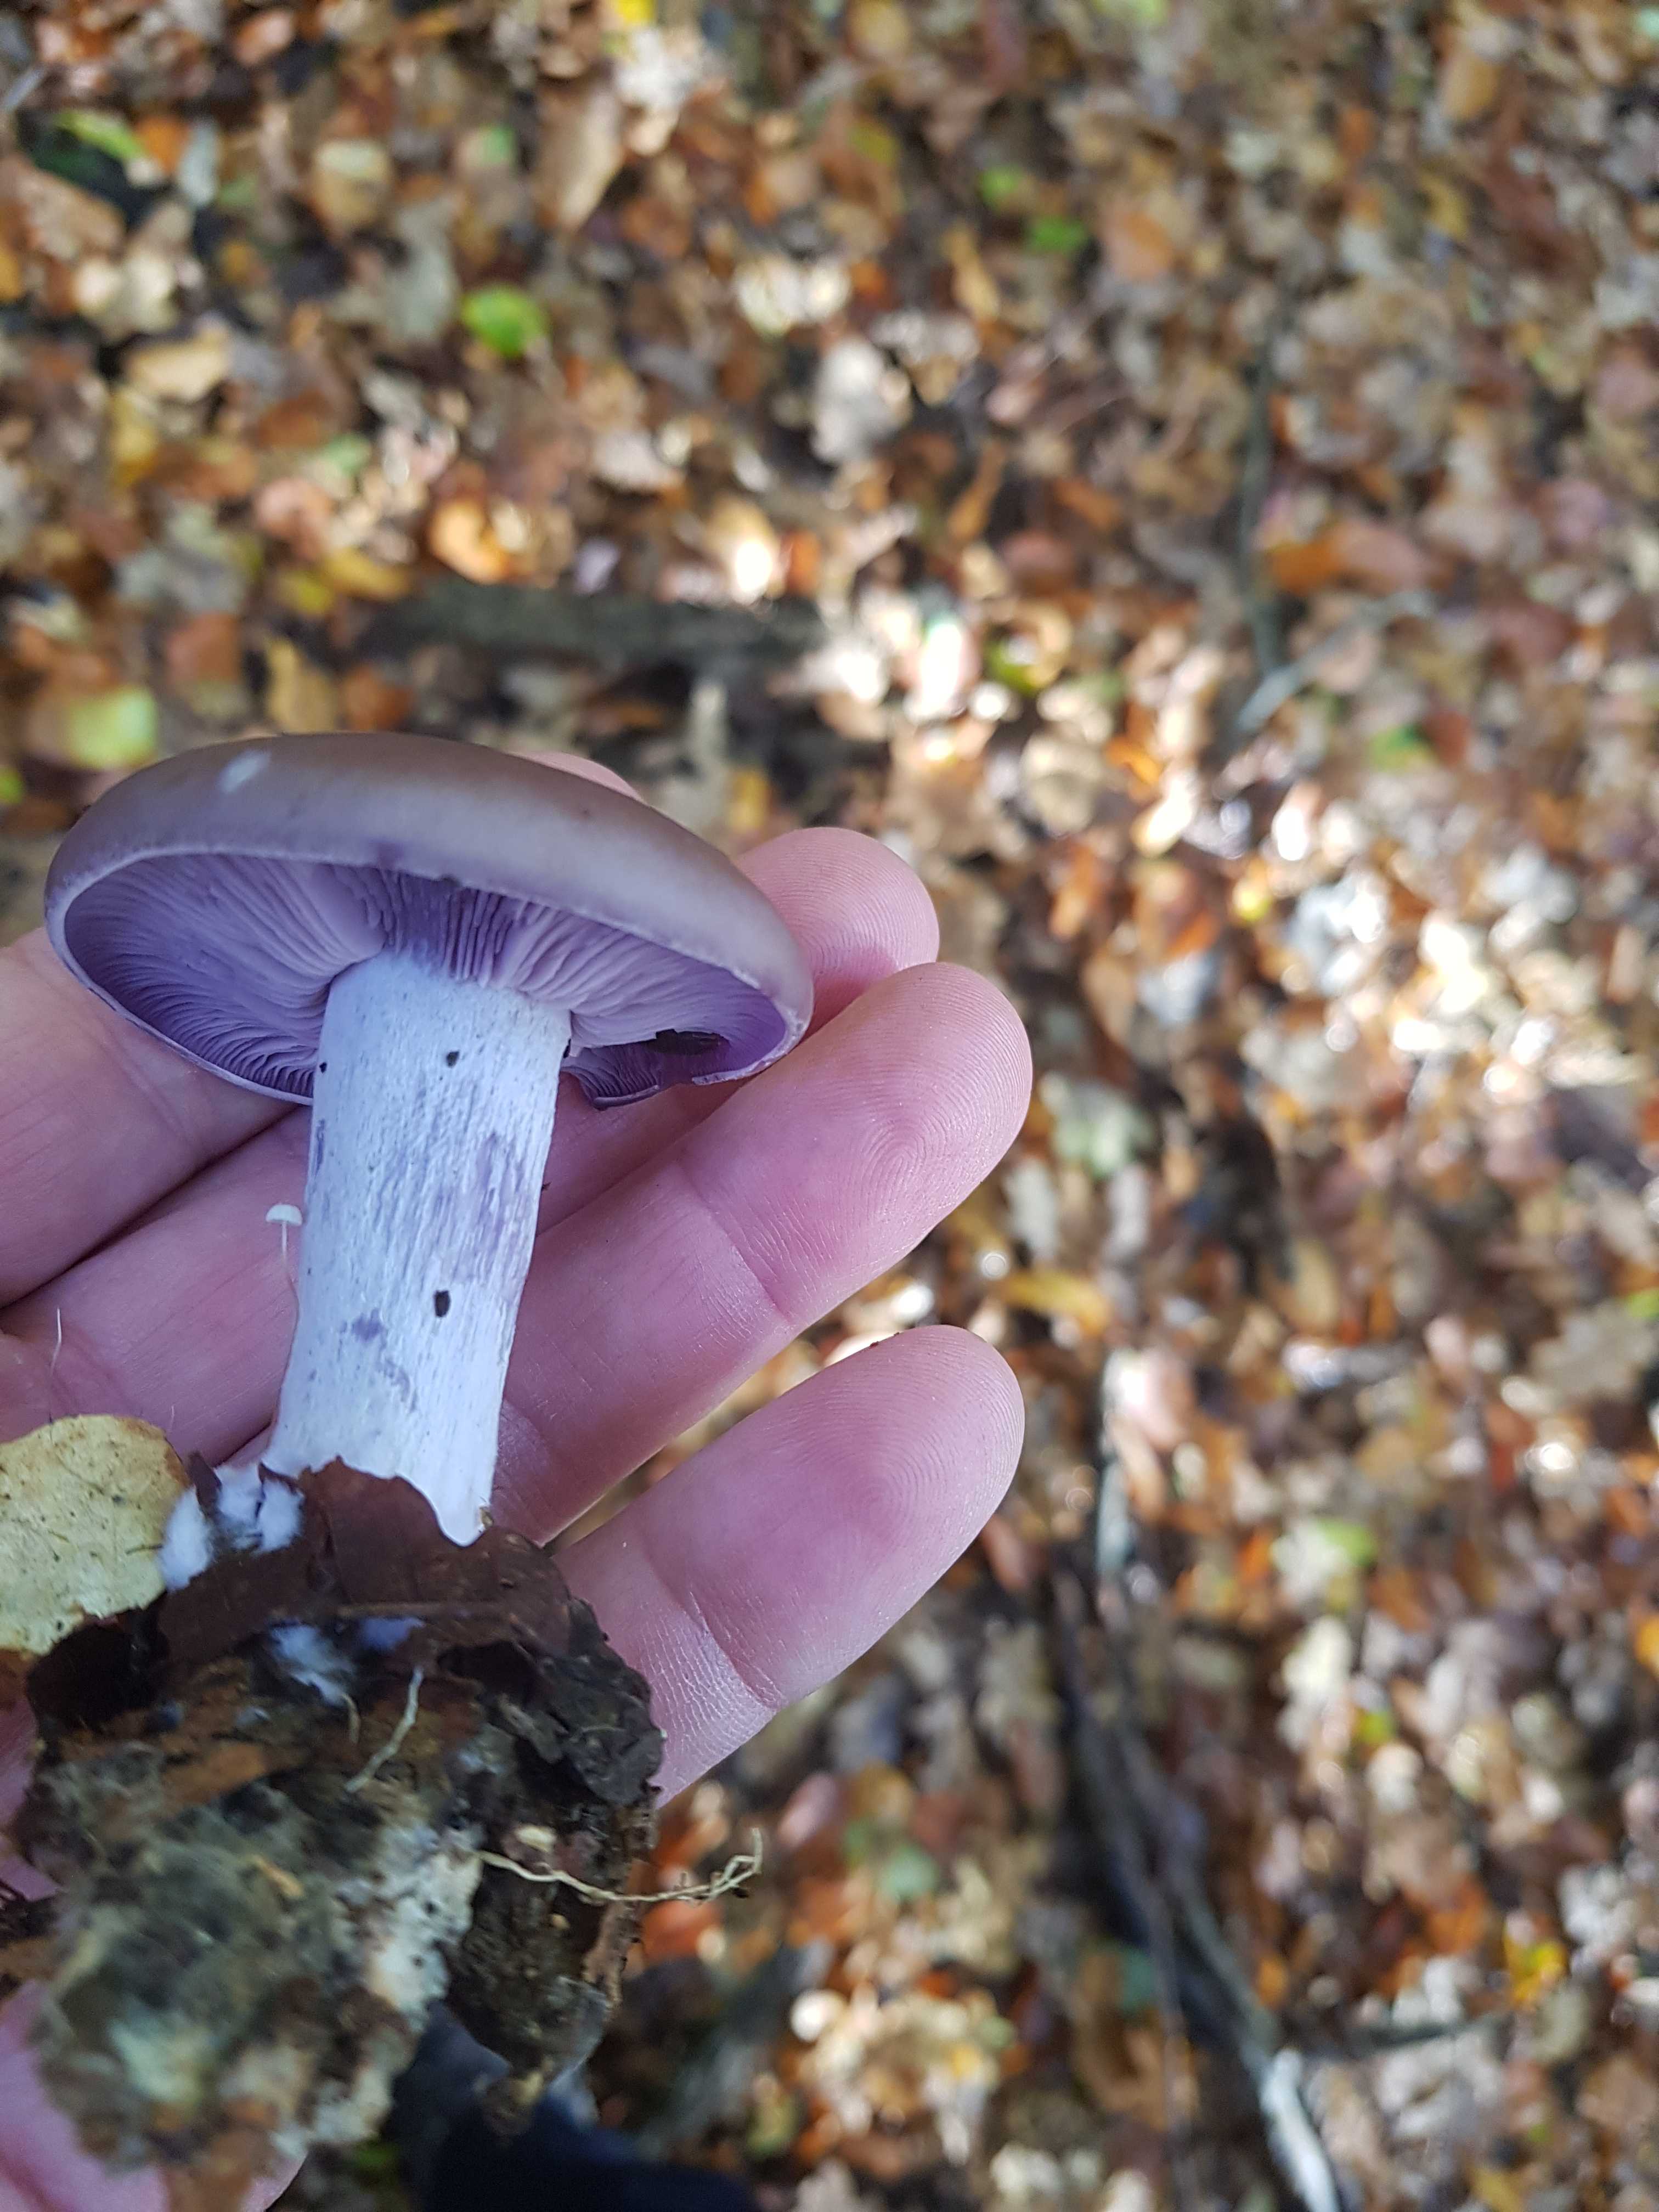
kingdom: Fungi
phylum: Basidiomycota
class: Agaricomycetes
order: Agaricales
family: Tricholomataceae
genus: Lepista
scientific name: Lepista nuda
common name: violet hekseringshat
